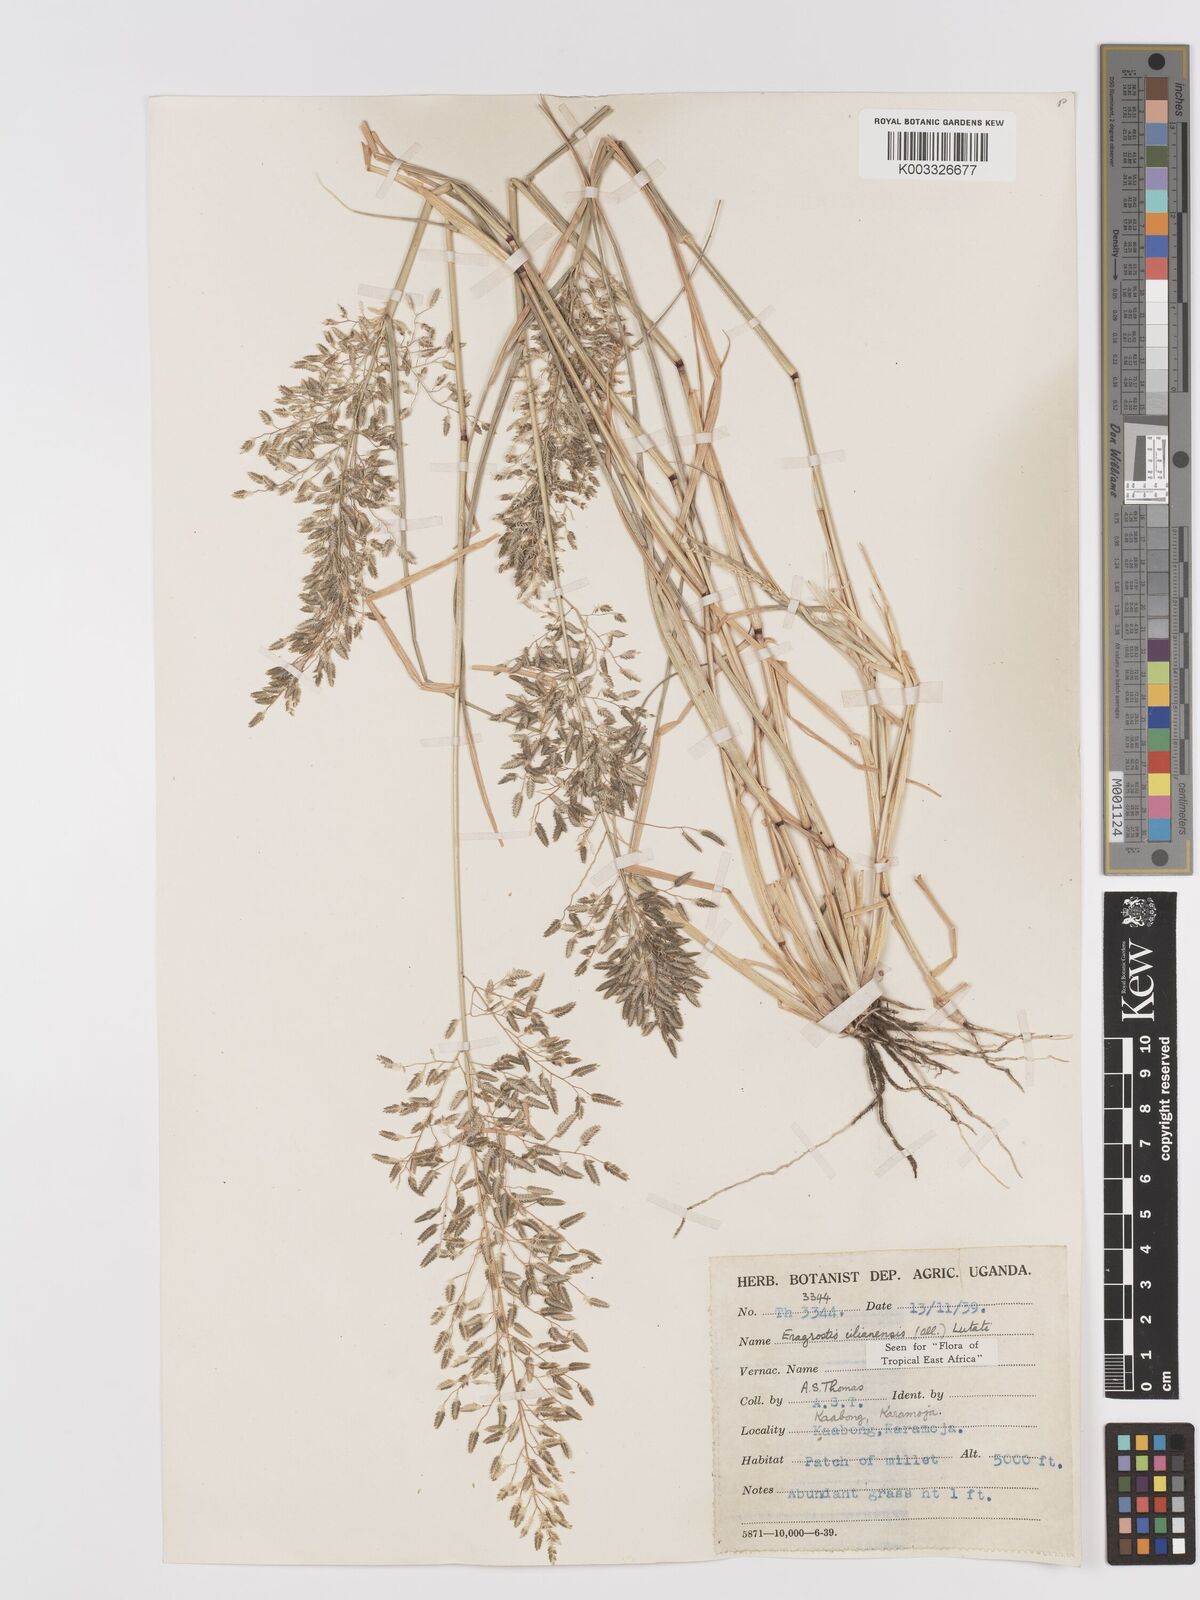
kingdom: Plantae
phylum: Tracheophyta
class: Liliopsida
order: Poales
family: Poaceae
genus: Eragrostis
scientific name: Eragrostis cilianensis
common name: Stinkgrass
